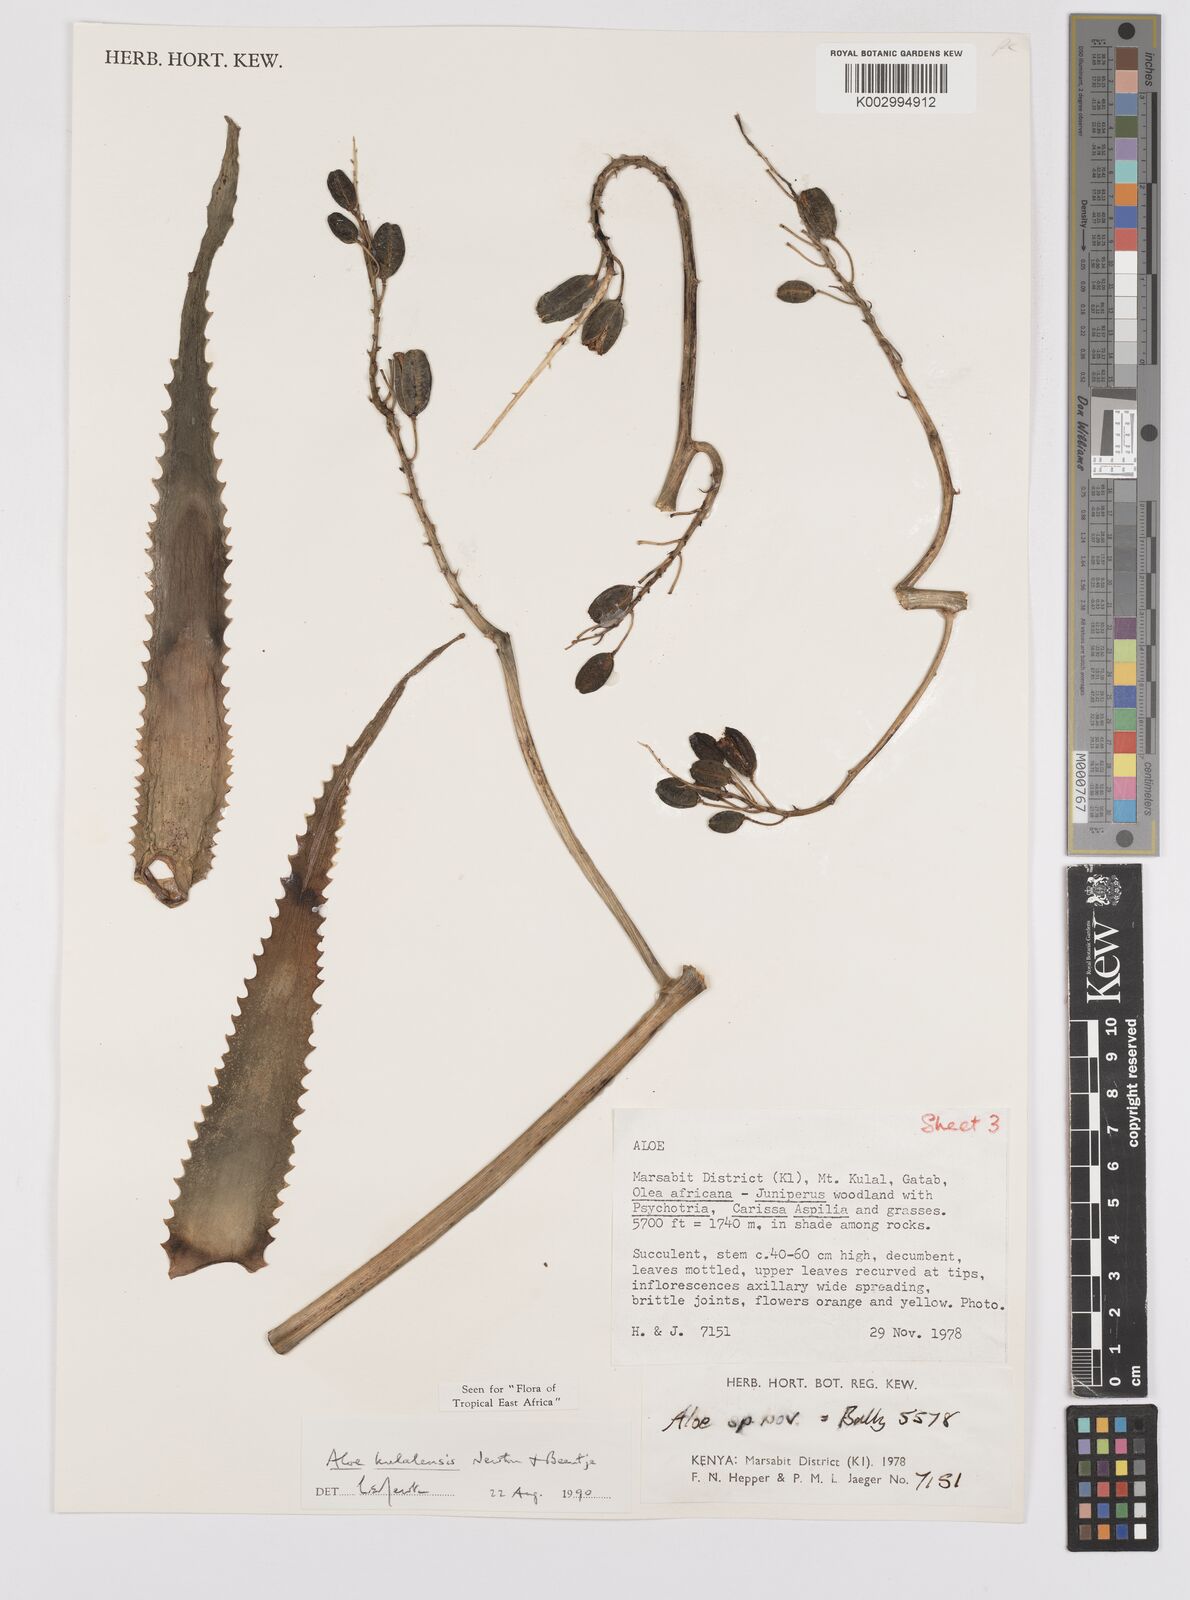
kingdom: Plantae
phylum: Tracheophyta
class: Liliopsida
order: Asparagales
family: Asphodelaceae
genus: Aloe
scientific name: Aloe kulalensis
